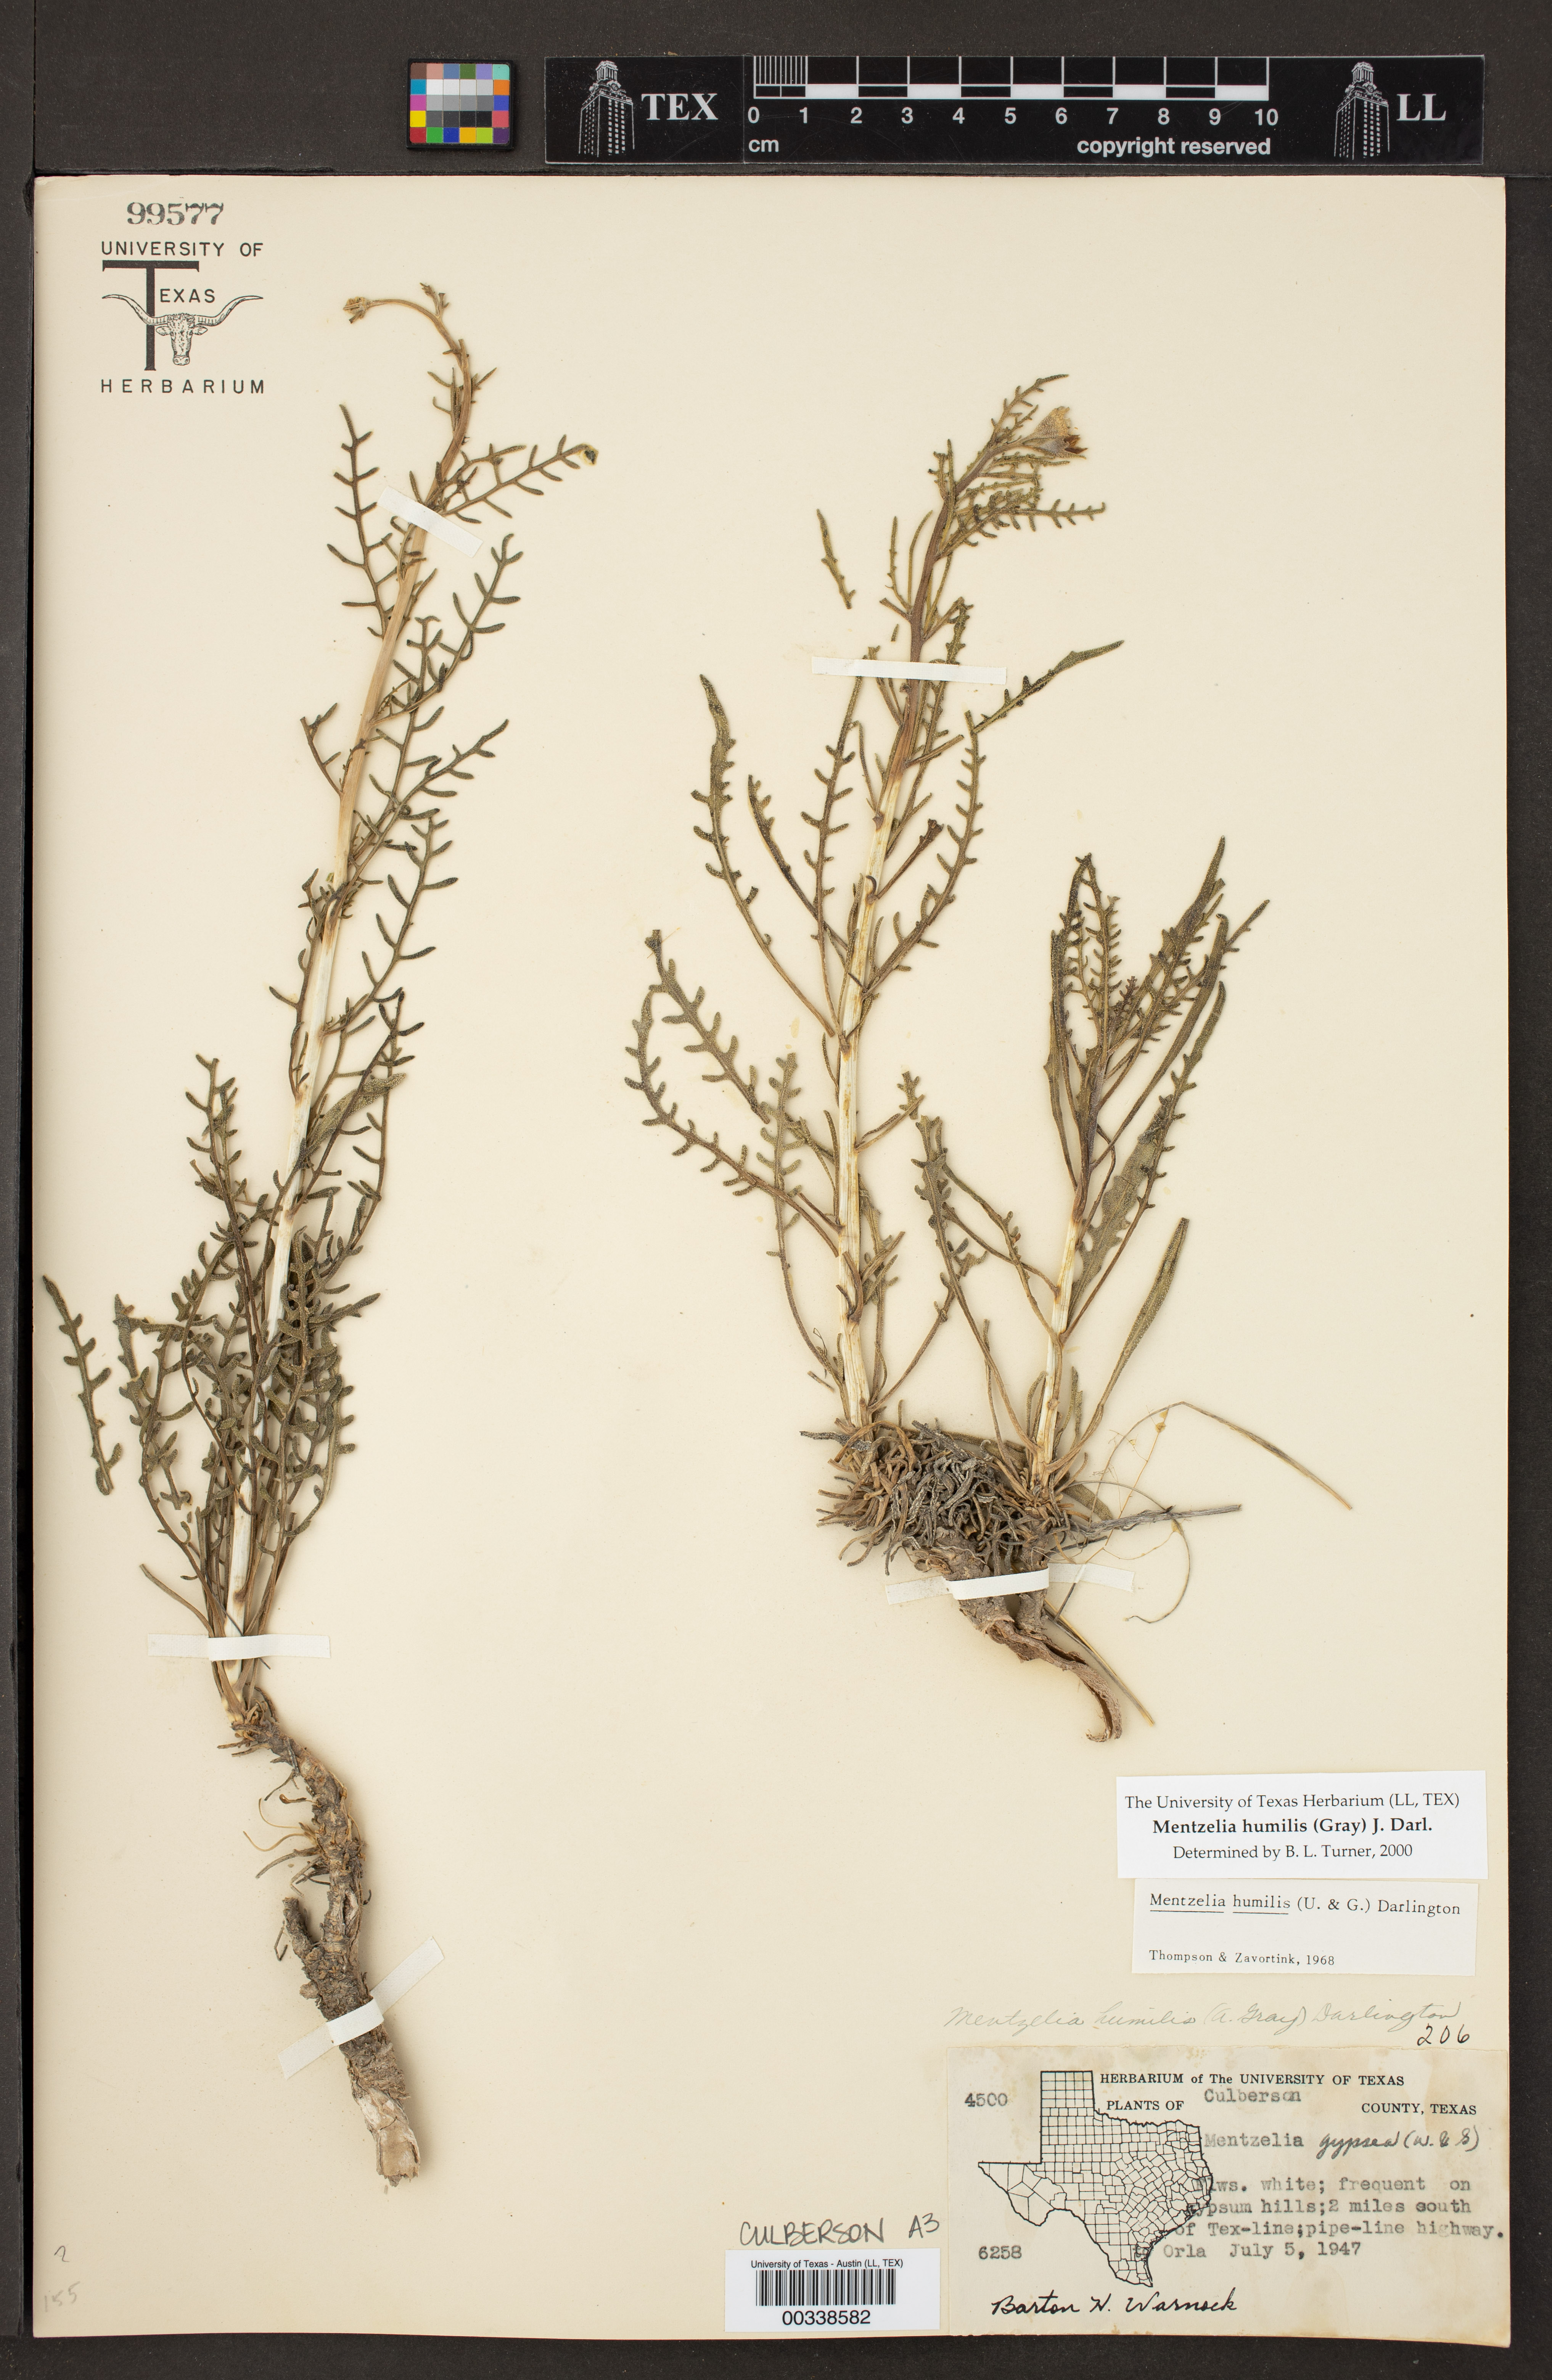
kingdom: Plantae
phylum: Tracheophyta
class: Magnoliopsida
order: Cornales
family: Loasaceae
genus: Mentzelia
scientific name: Mentzelia humilis
